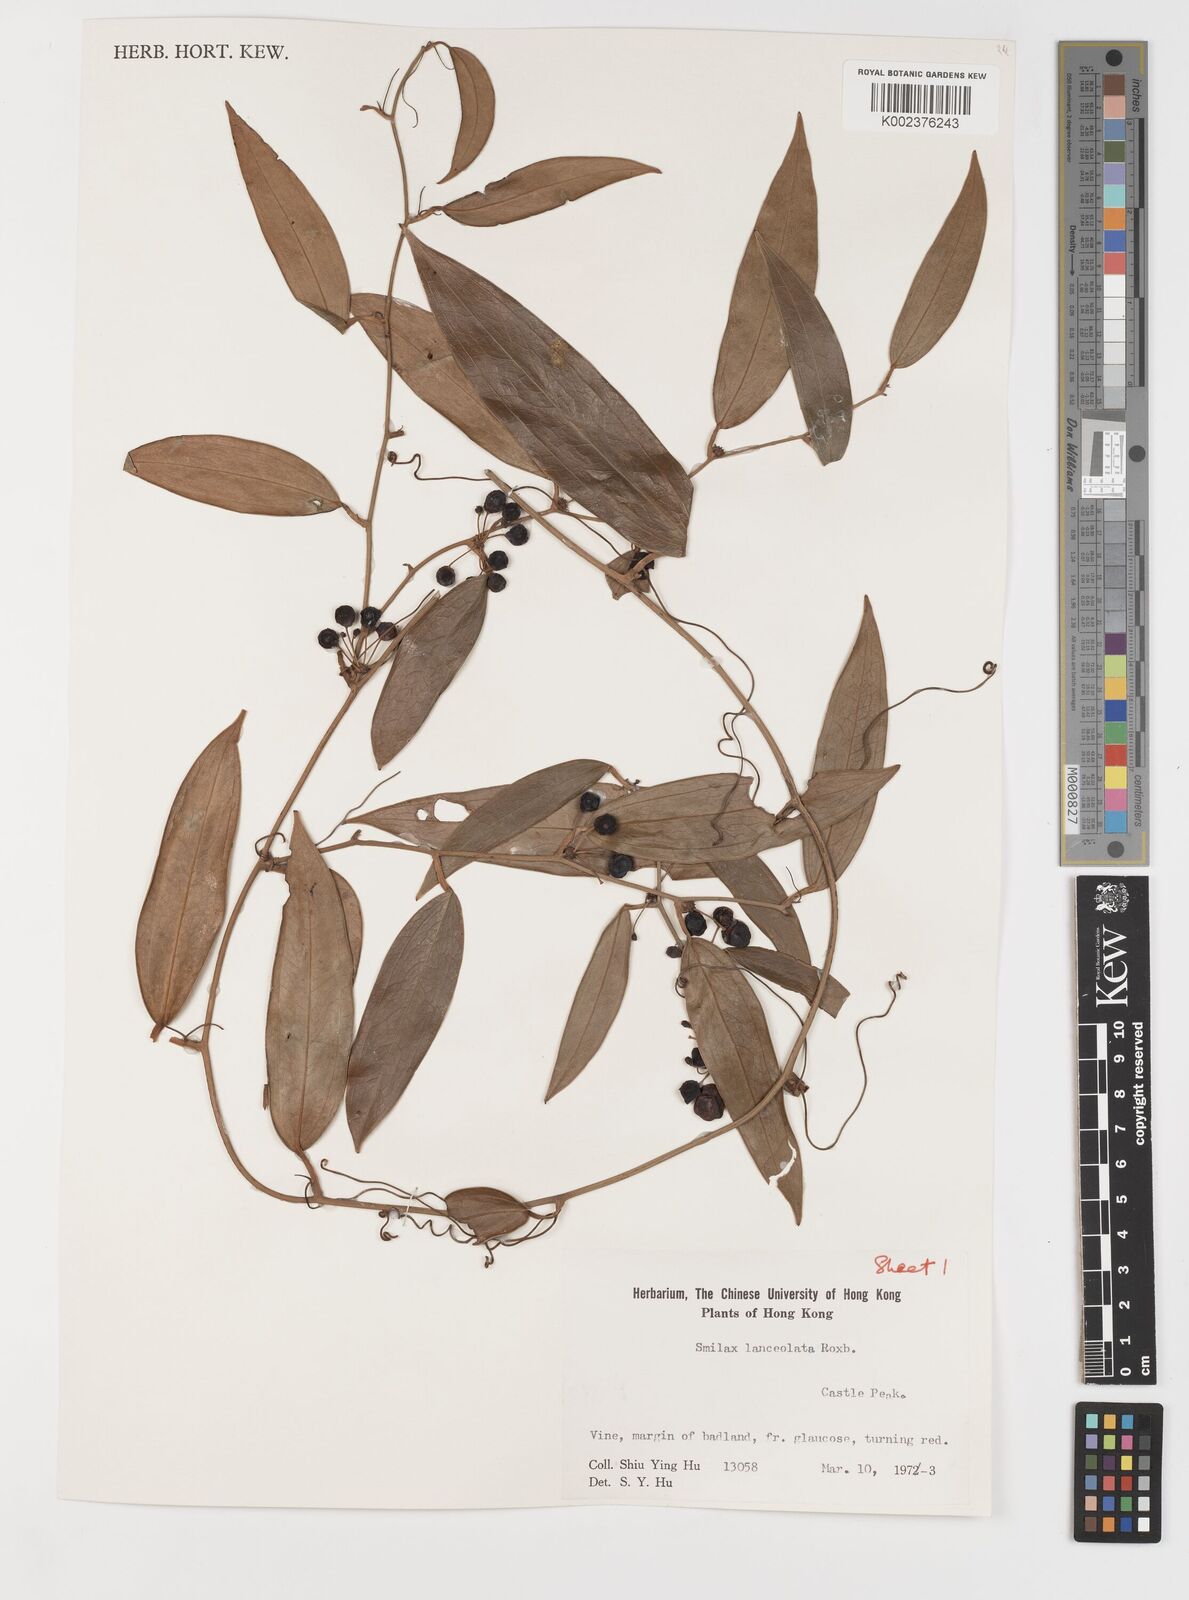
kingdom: Plantae
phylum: Tracheophyta
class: Liliopsida
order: Liliales
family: Smilacaceae
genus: Smilax
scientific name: Smilax
